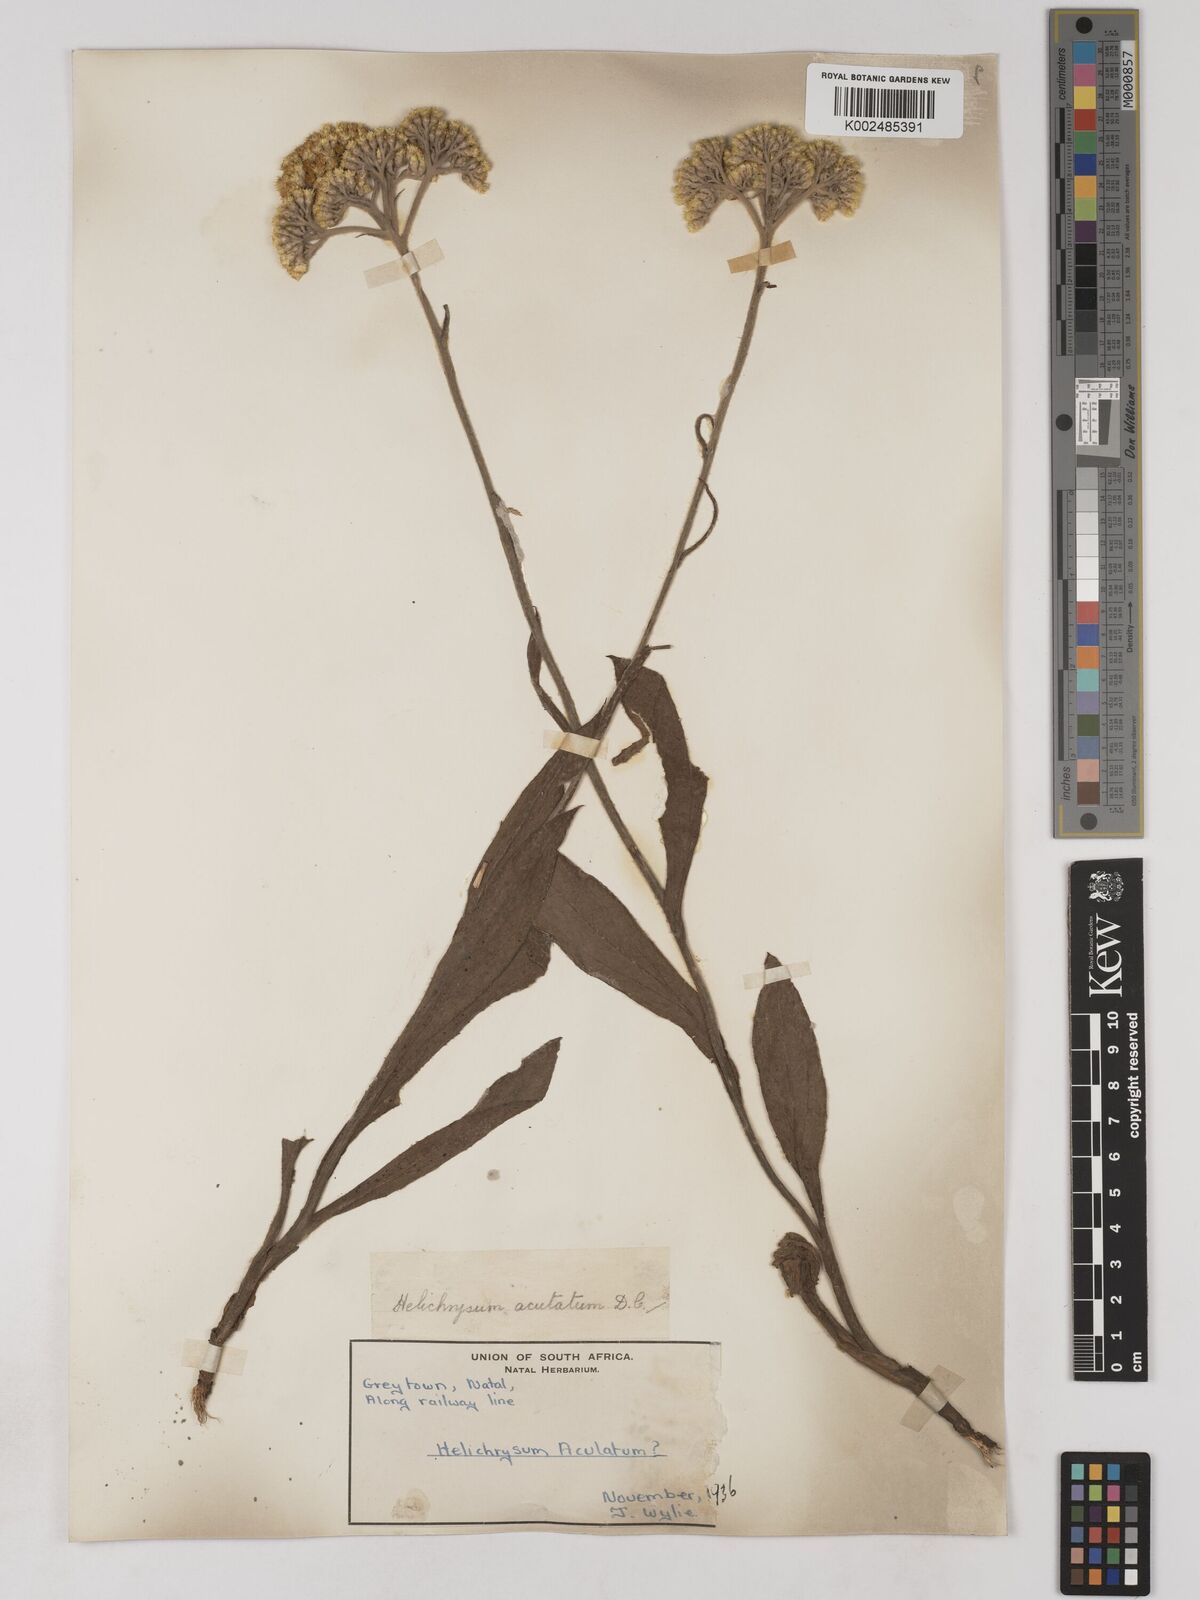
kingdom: Plantae
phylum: Tracheophyta
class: Magnoliopsida
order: Asterales
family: Asteraceae
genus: Helichrysum
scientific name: Helichrysum acutatum
